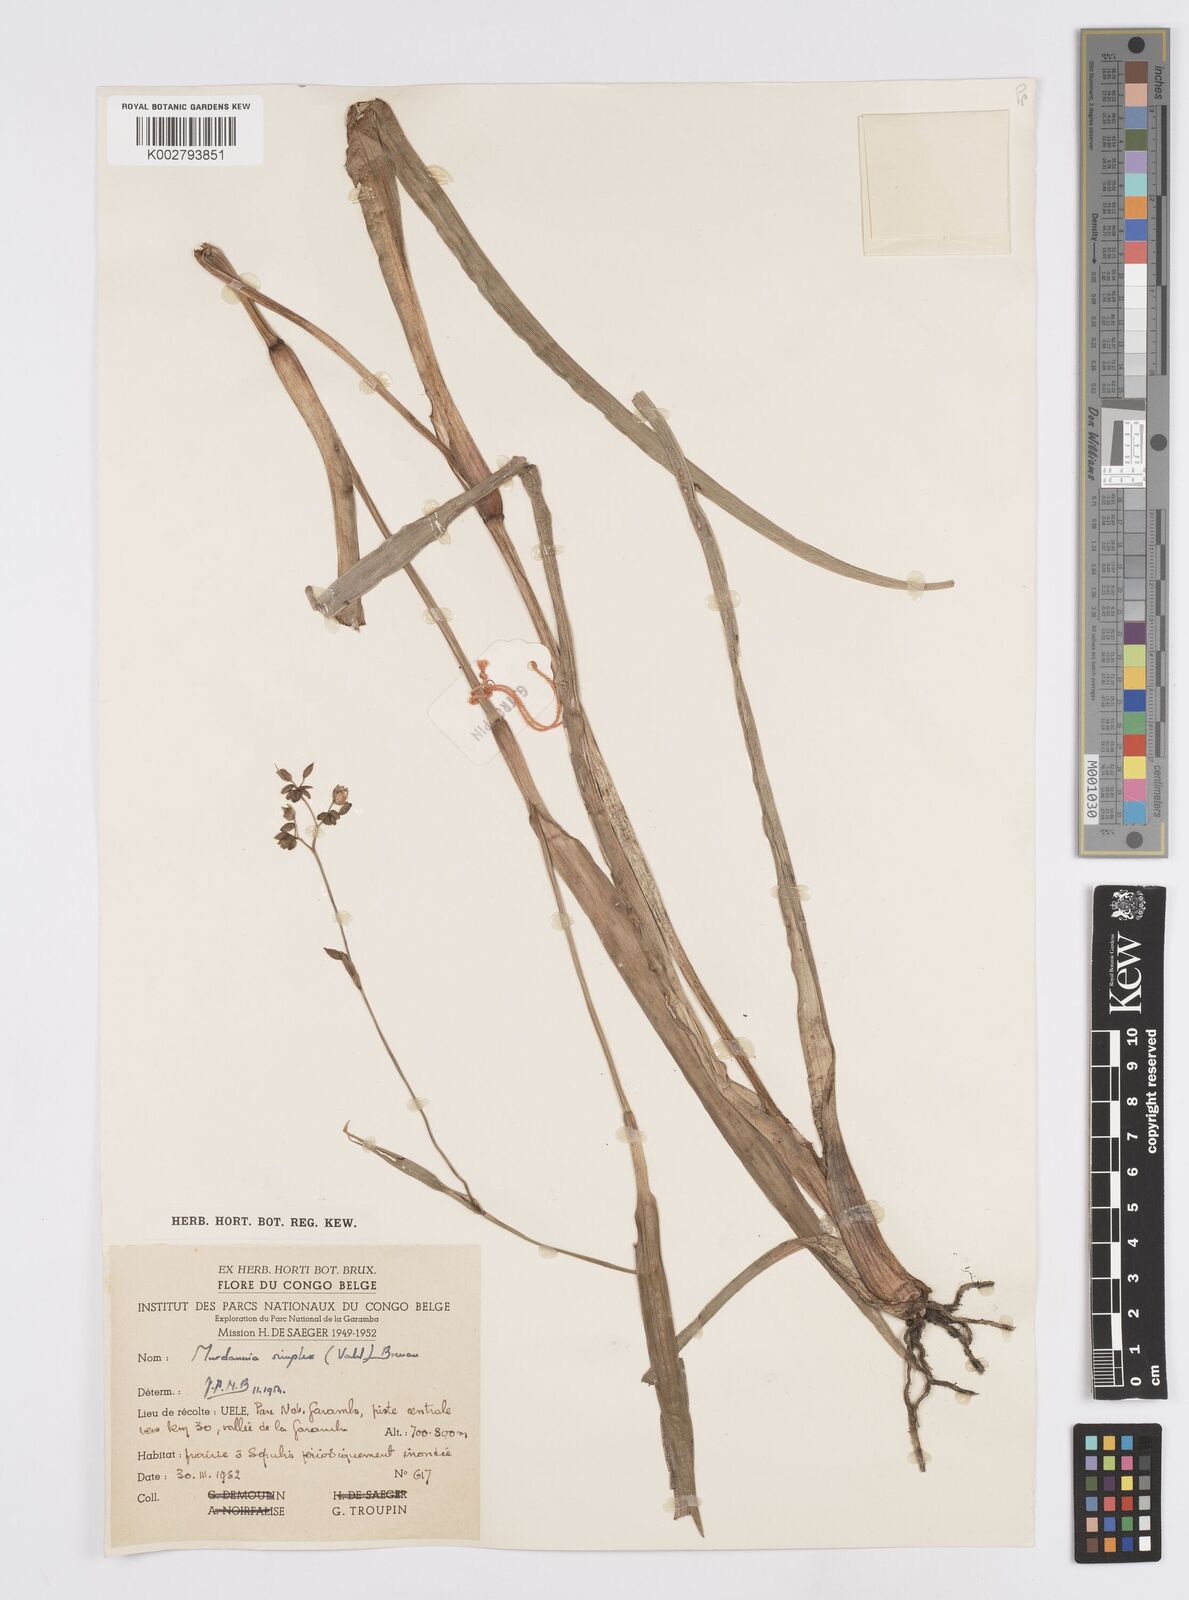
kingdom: Plantae
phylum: Tracheophyta
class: Liliopsida
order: Commelinales
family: Commelinaceae
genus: Murdannia
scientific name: Murdannia simplex
